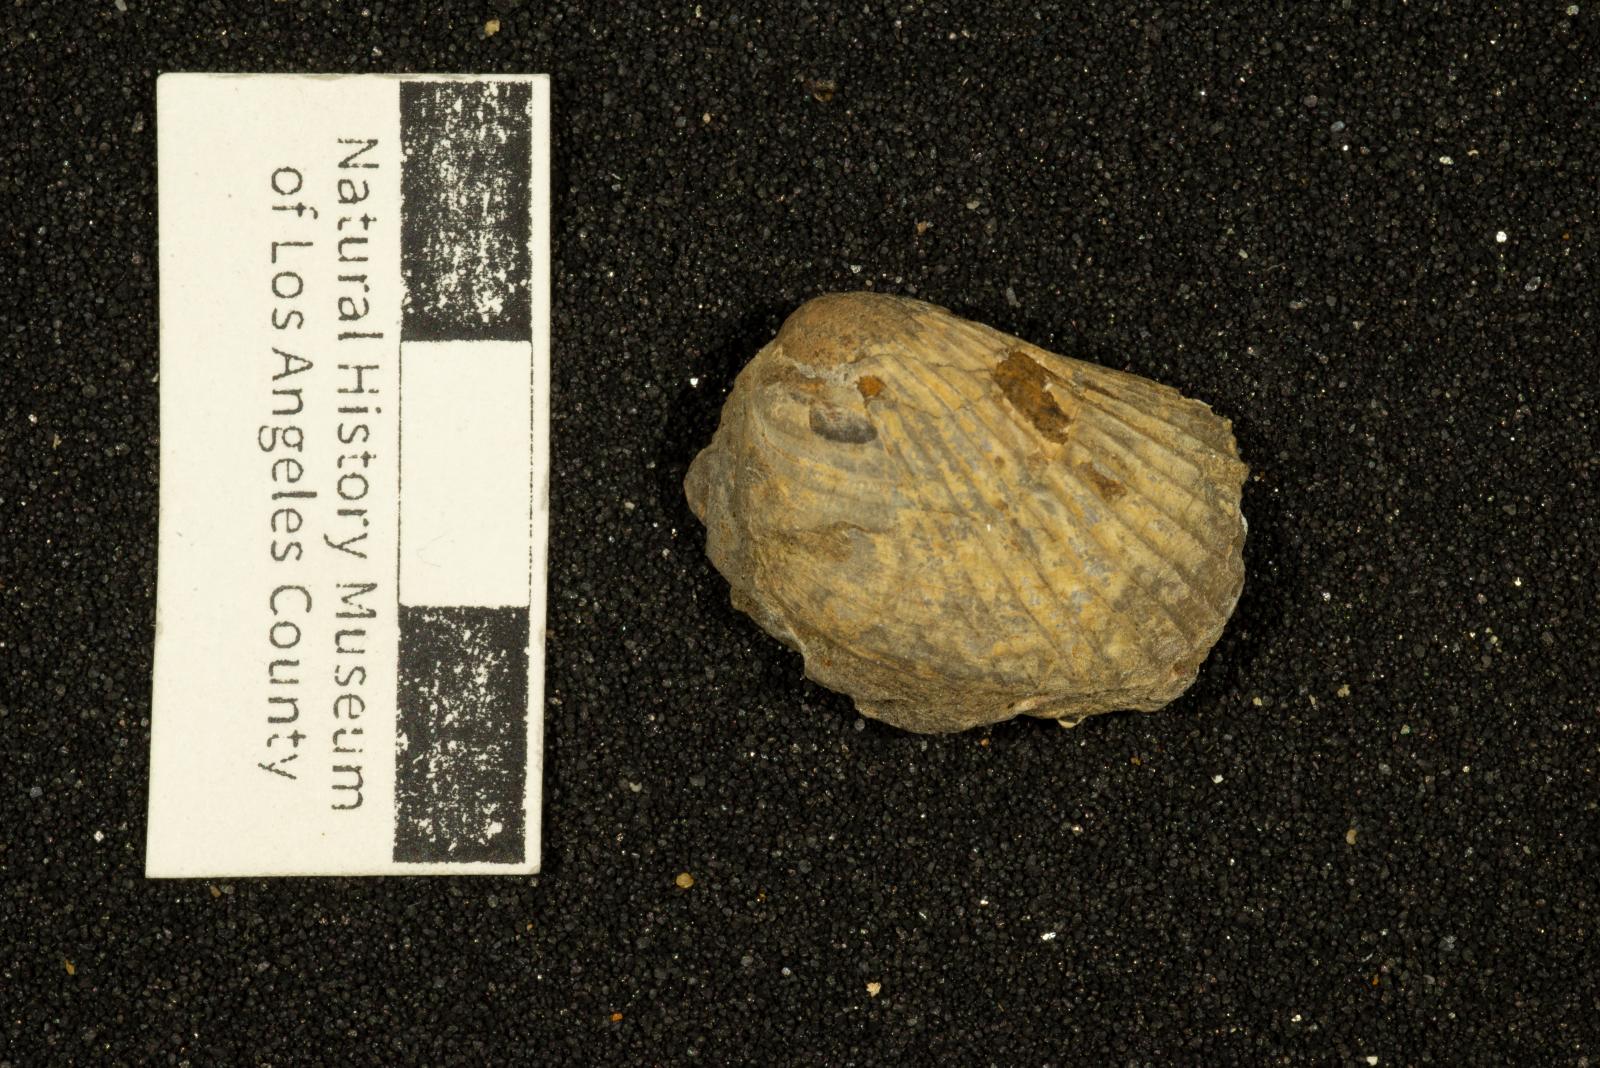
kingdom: Animalia
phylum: Mollusca
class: Bivalvia
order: Limida
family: Limidae
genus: Lima
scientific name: Lima
